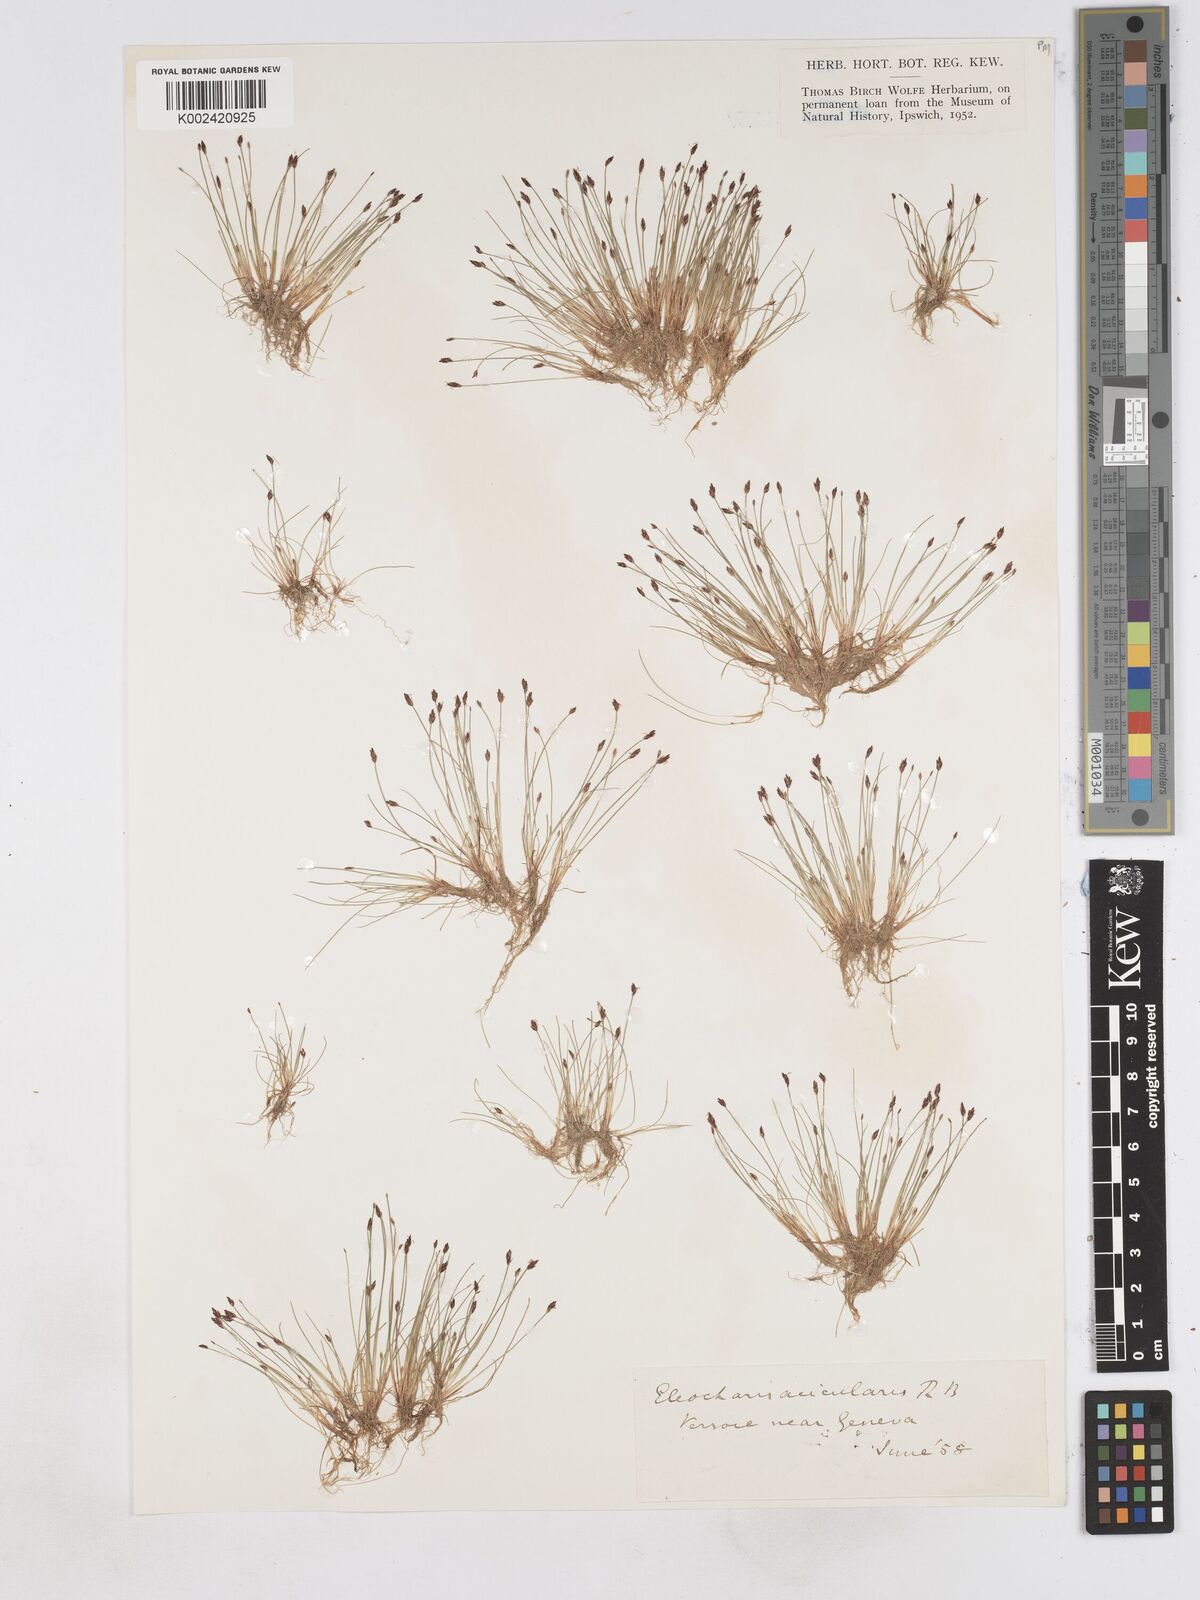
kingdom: Plantae
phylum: Tracheophyta
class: Liliopsida
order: Poales
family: Cyperaceae
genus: Eleocharis
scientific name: Eleocharis acicularis
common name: Needle spike-rush
